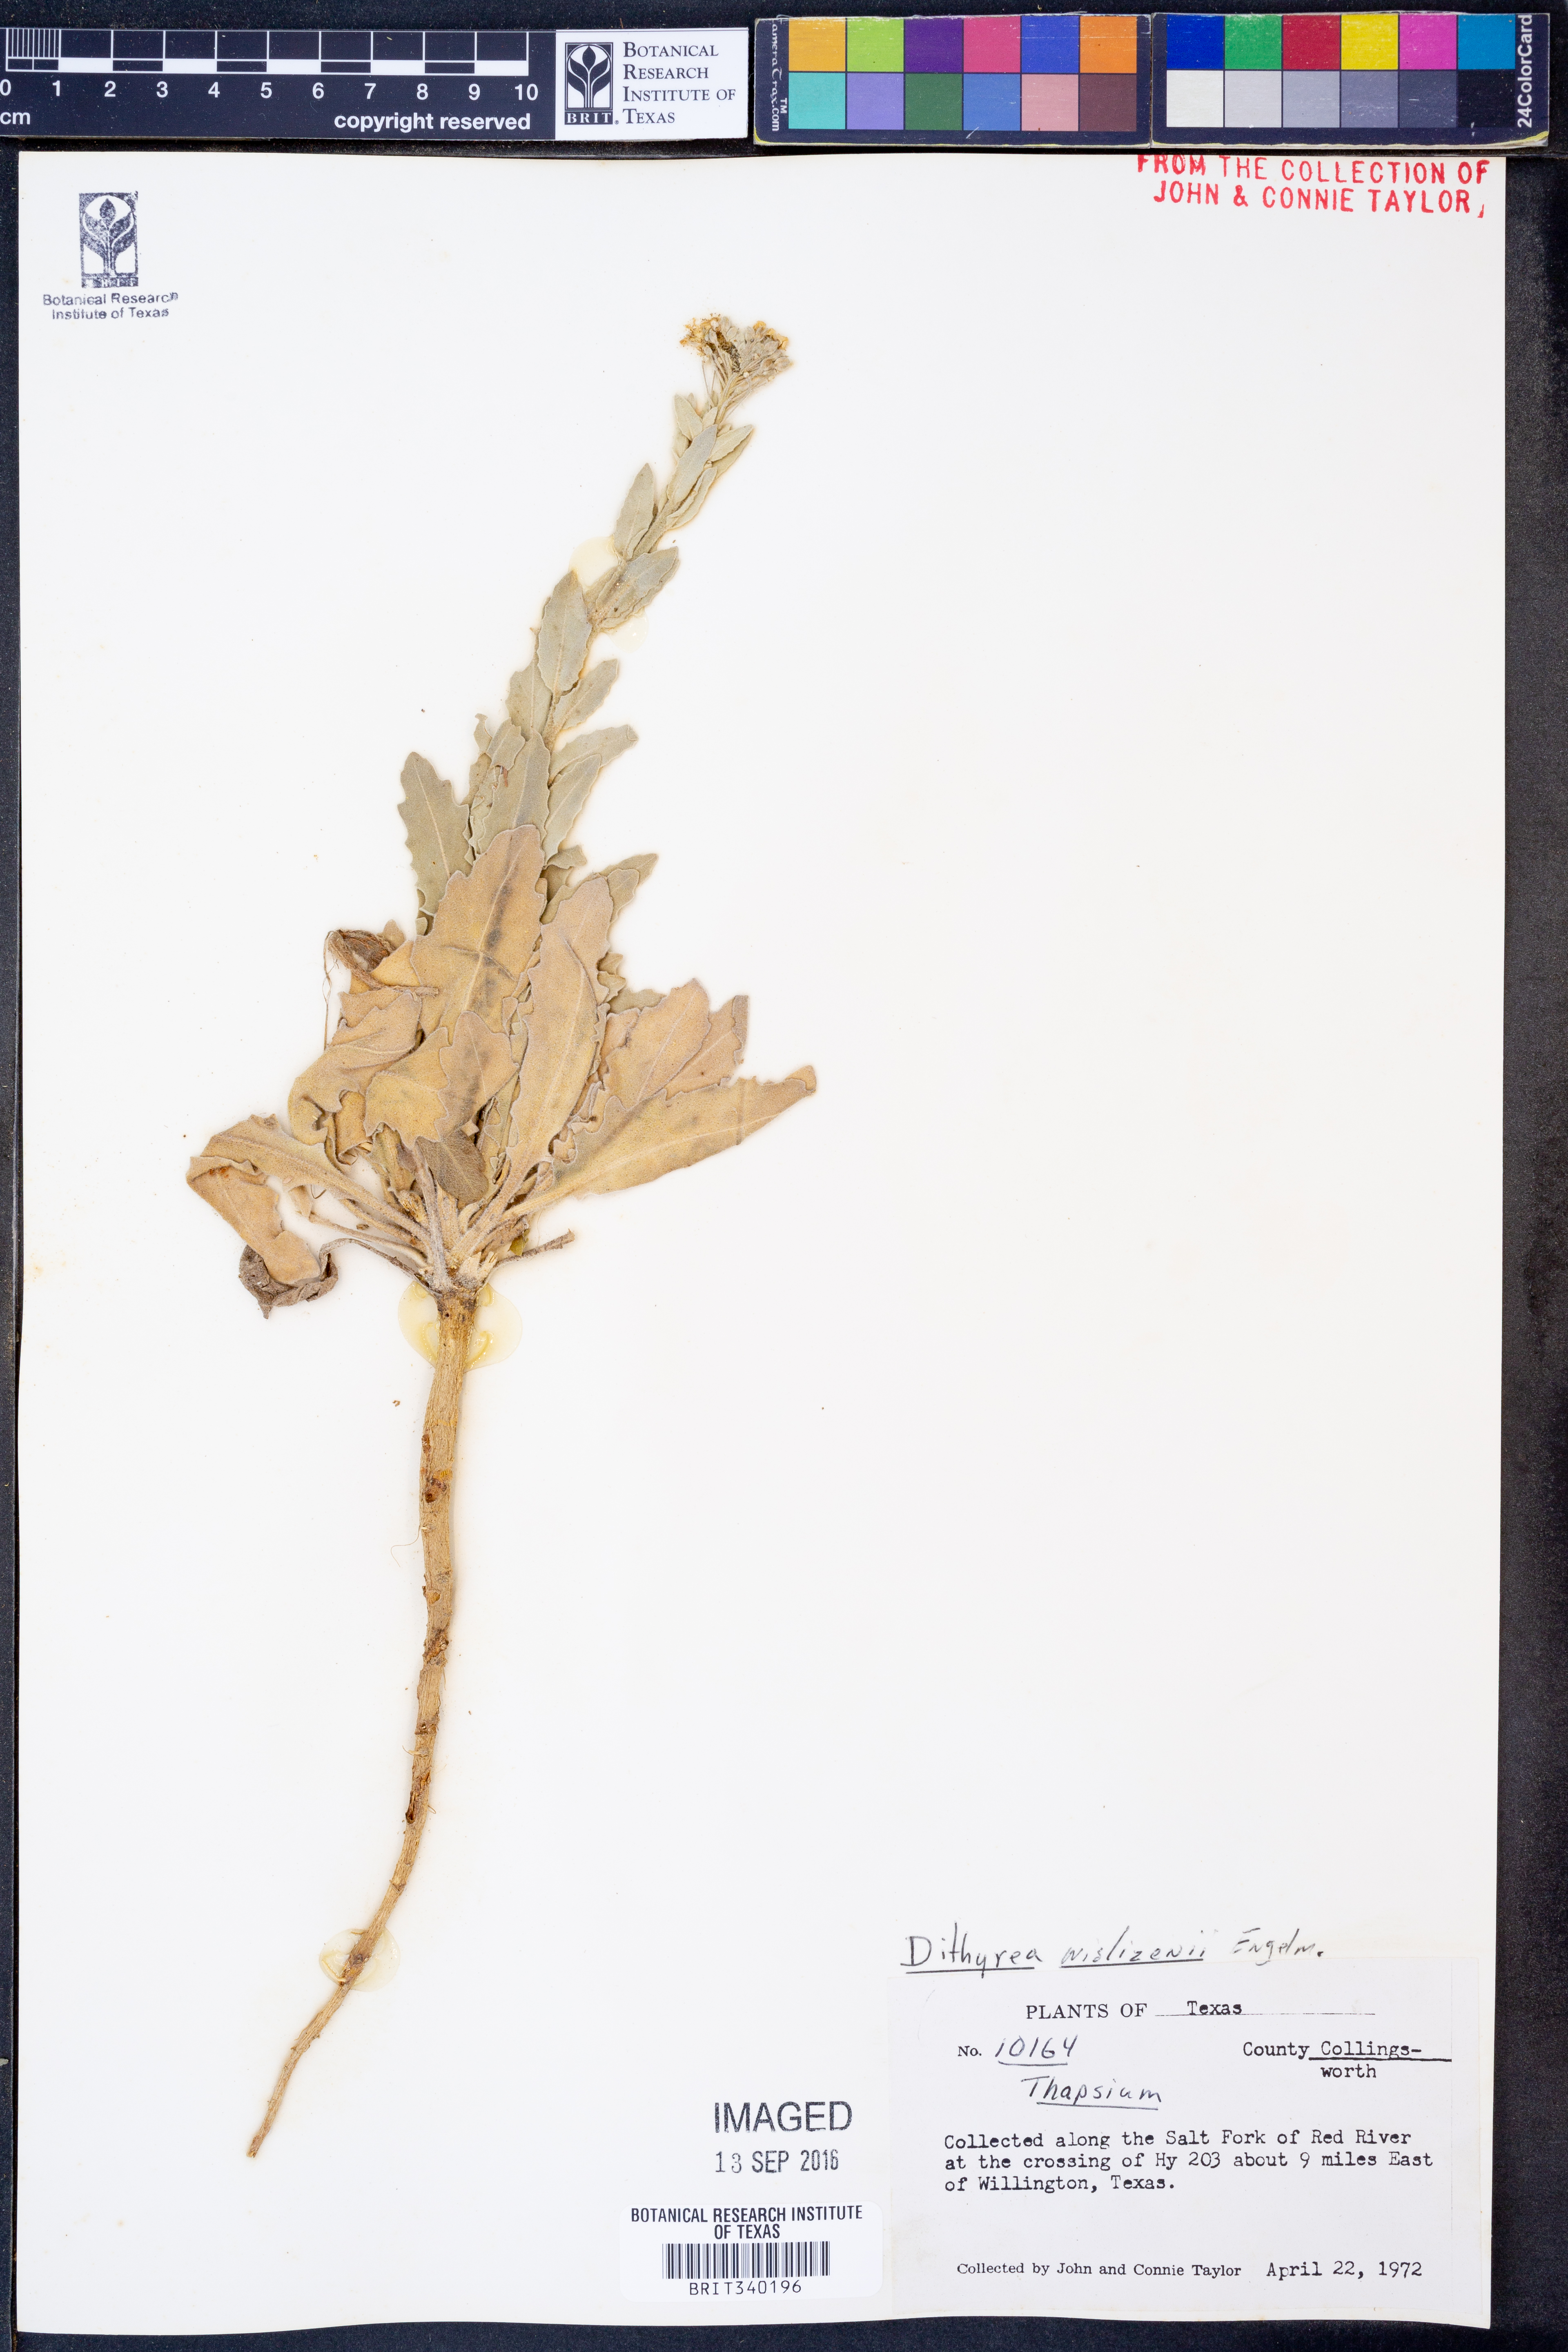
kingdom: Plantae
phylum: Tracheophyta
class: Magnoliopsida
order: Brassicales
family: Brassicaceae
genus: Dimorphocarpa
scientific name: Dimorphocarpa wislizenii
